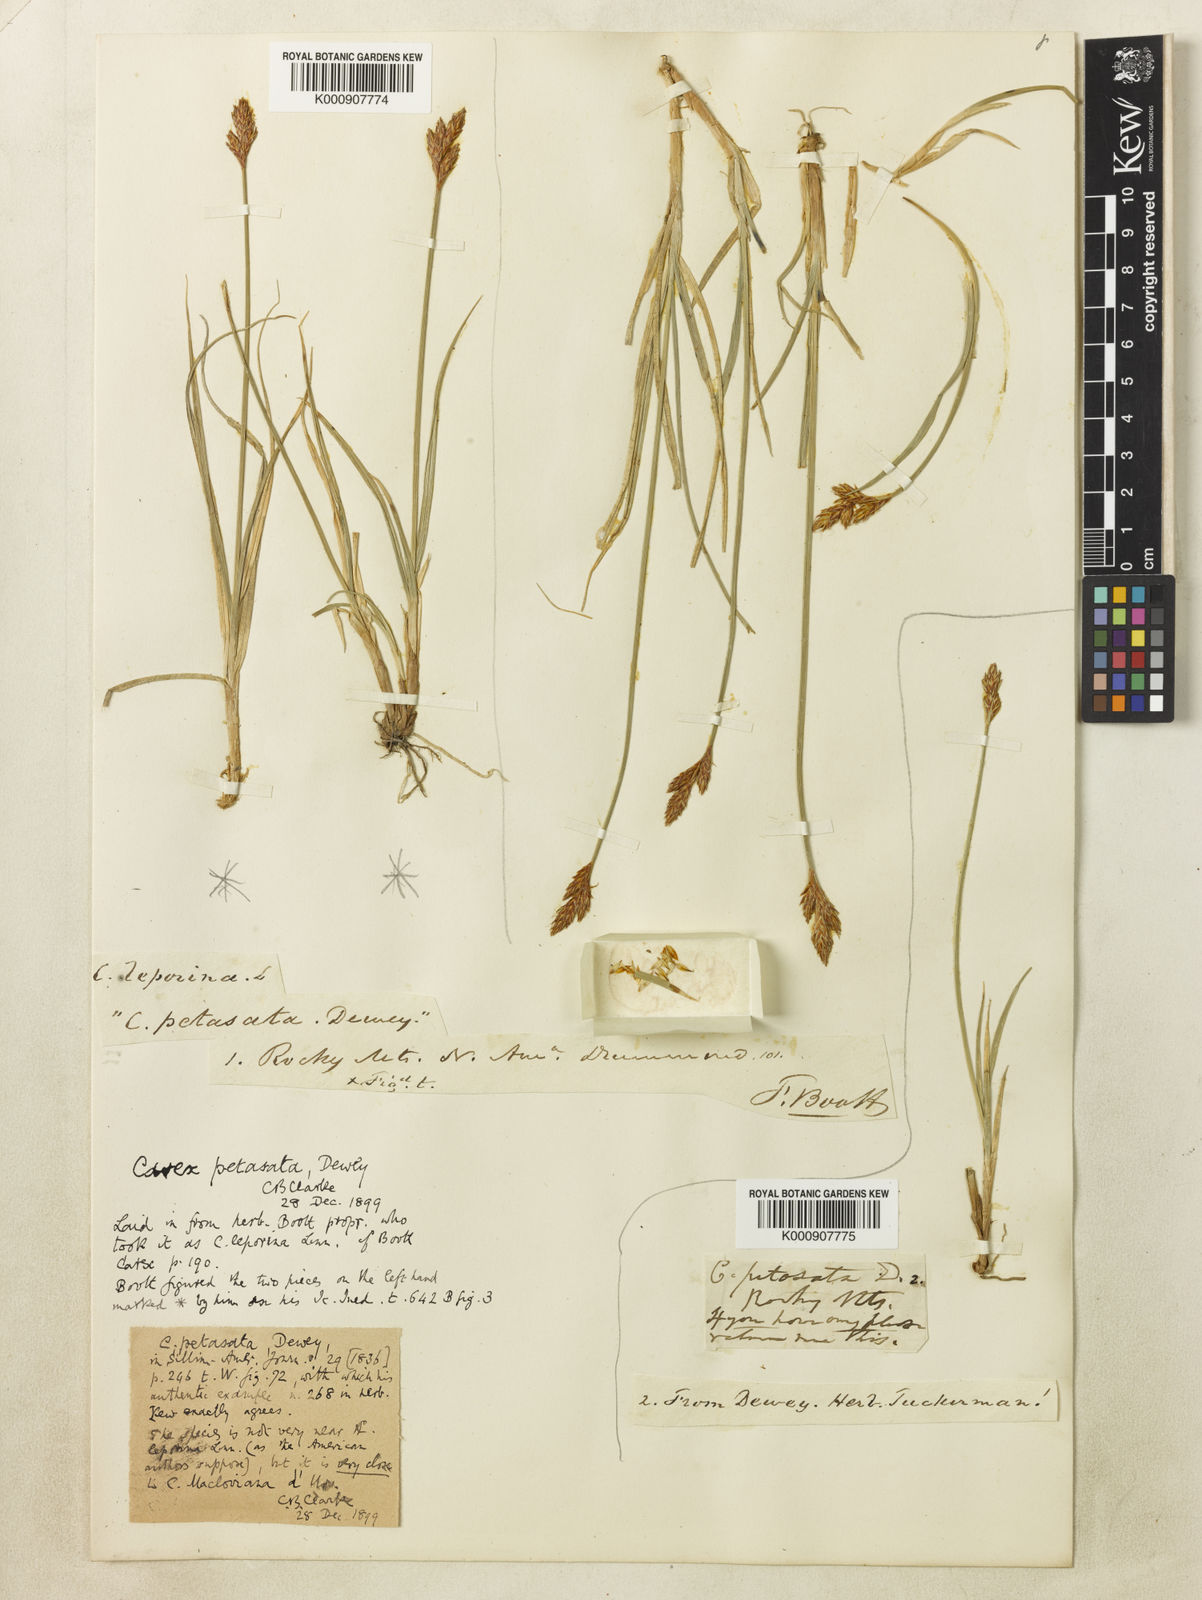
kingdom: Plantae
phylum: Tracheophyta
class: Liliopsida
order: Poales
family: Cyperaceae
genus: Carex
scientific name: Carex petasata
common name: Liddon's sedge
